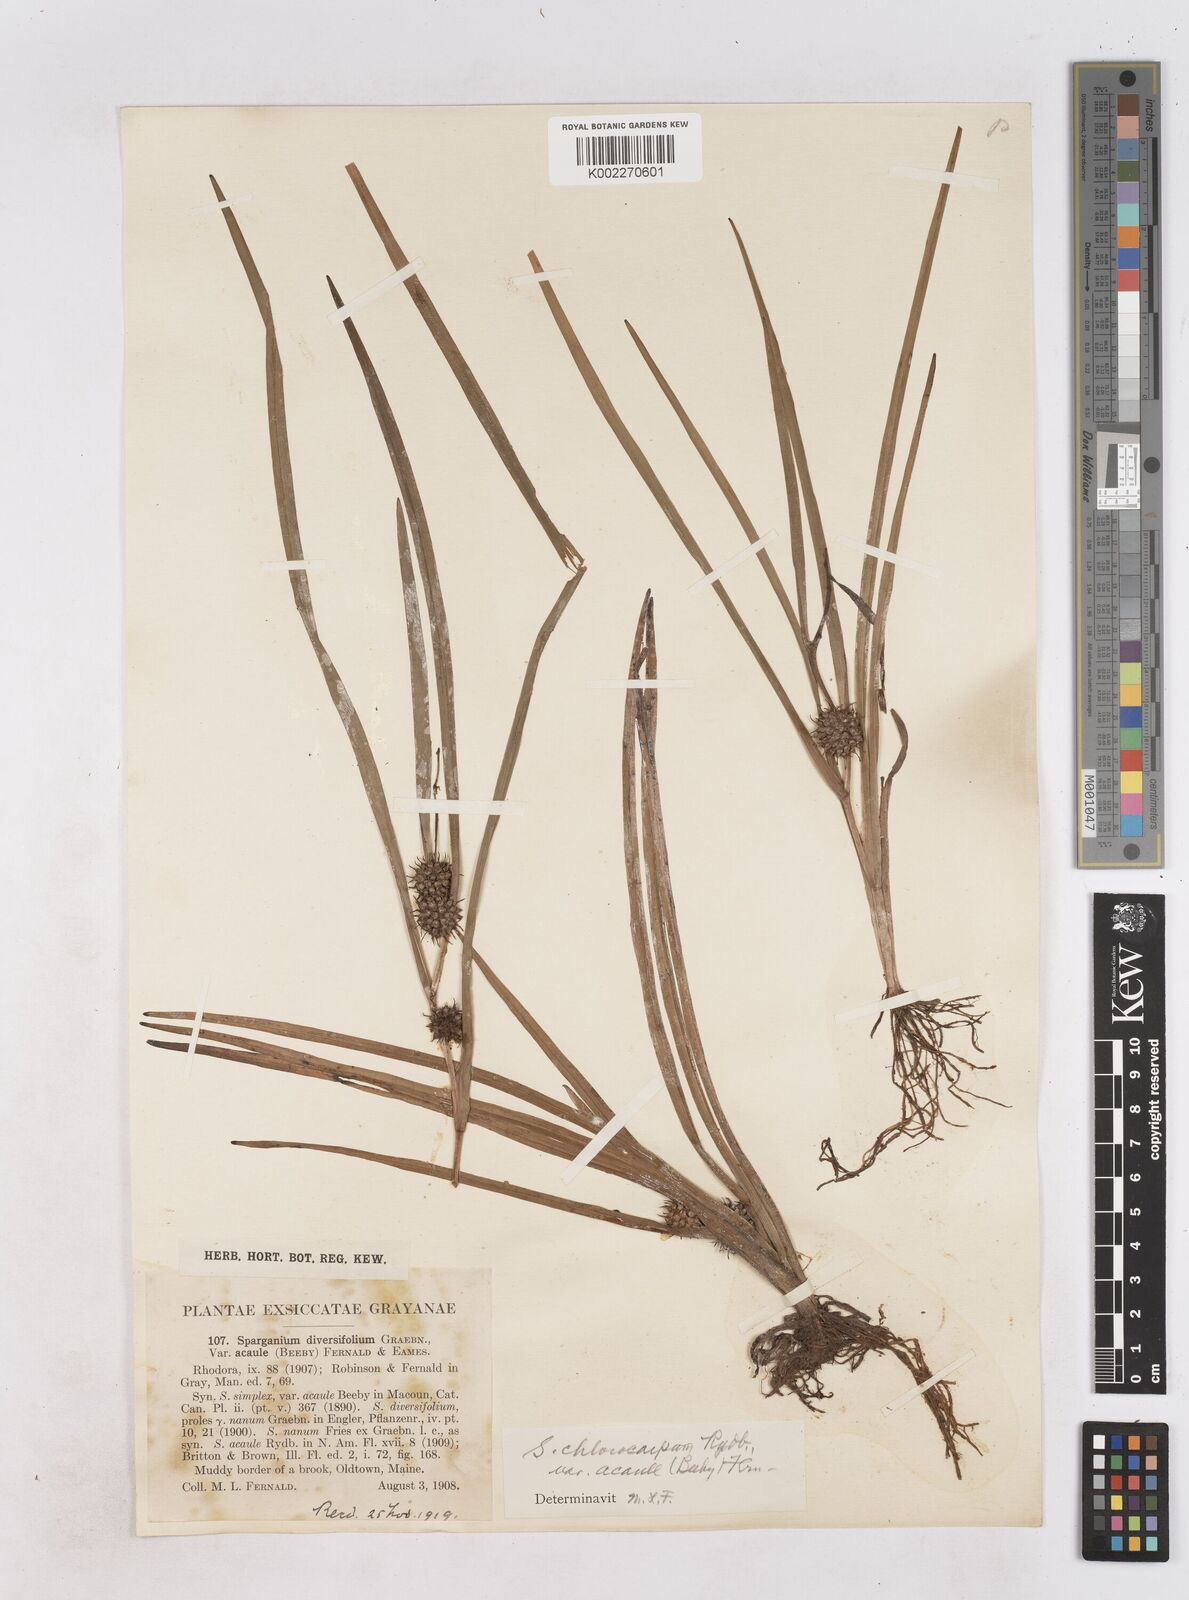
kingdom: Plantae
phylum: Tracheophyta
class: Liliopsida
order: Poales
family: Typhaceae
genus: Sparganium
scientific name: Sparganium emersum
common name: Unbranched bur-reed
